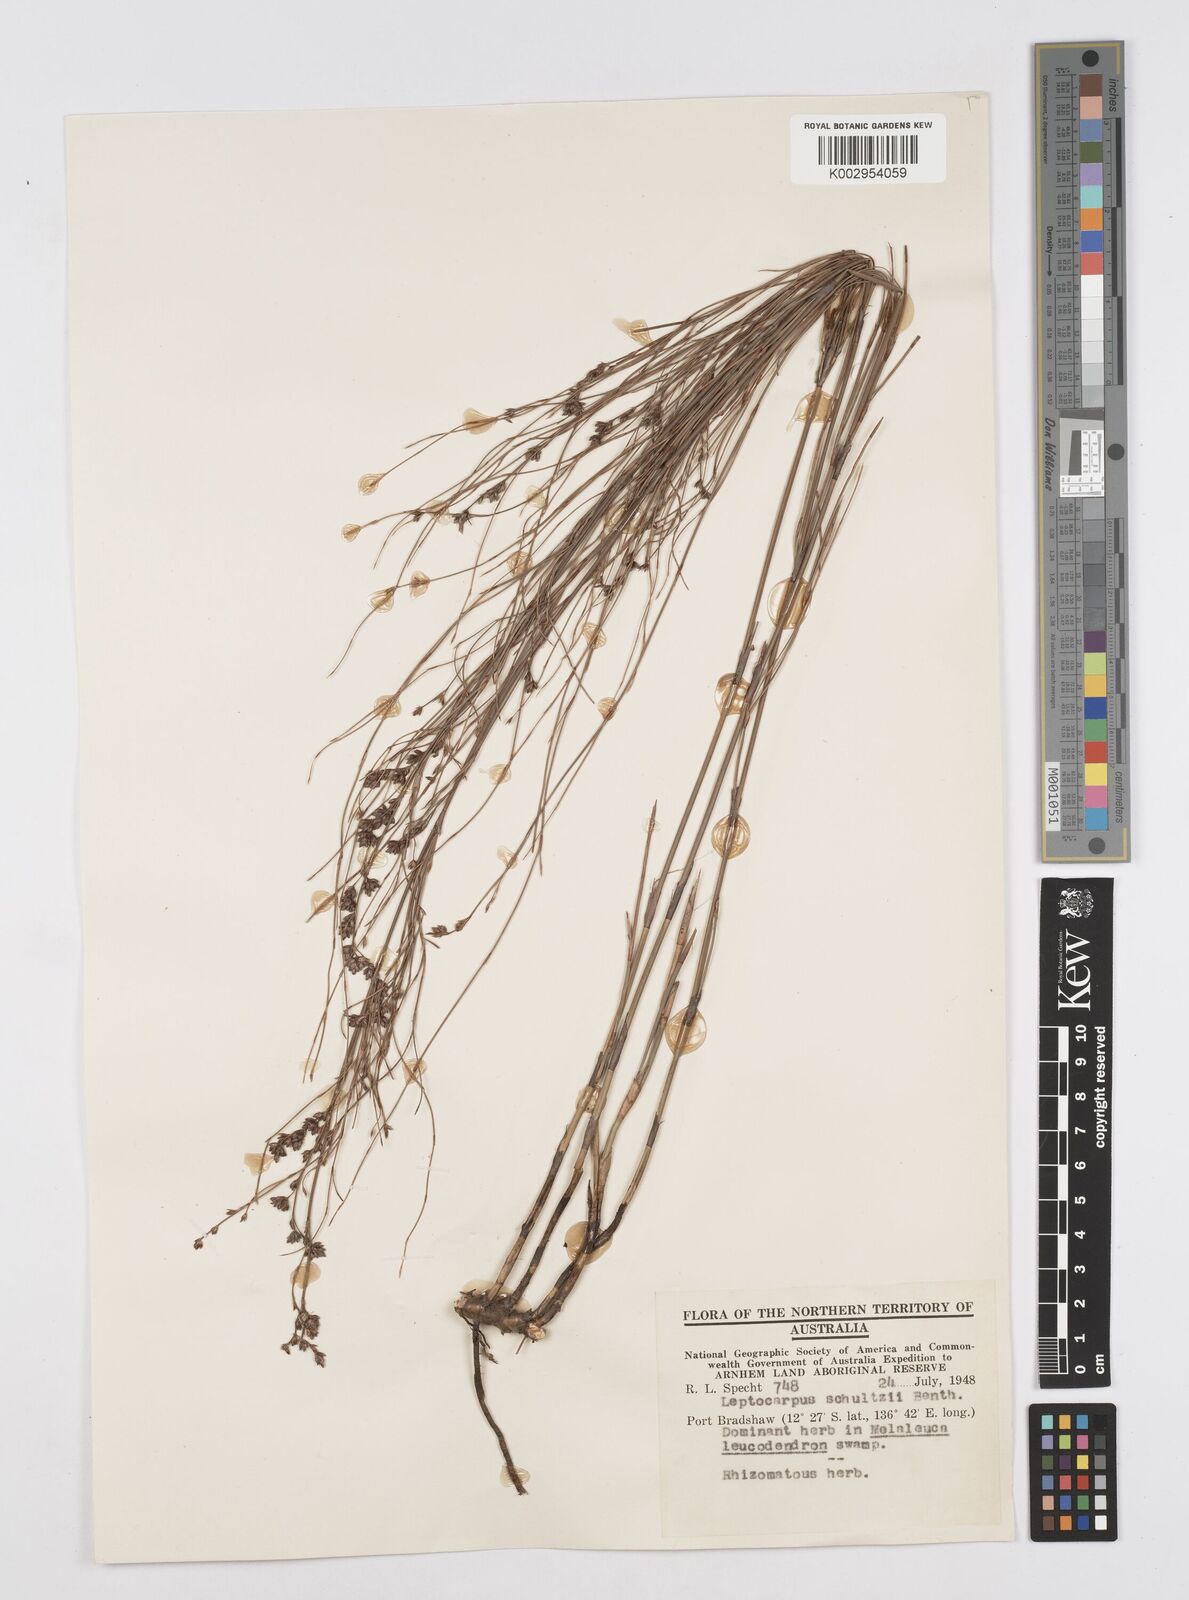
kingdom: Plantae
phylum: Tracheophyta
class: Liliopsida
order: Poales
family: Restionaceae
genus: Dapsilanthus
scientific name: Dapsilanthus spathaceus
